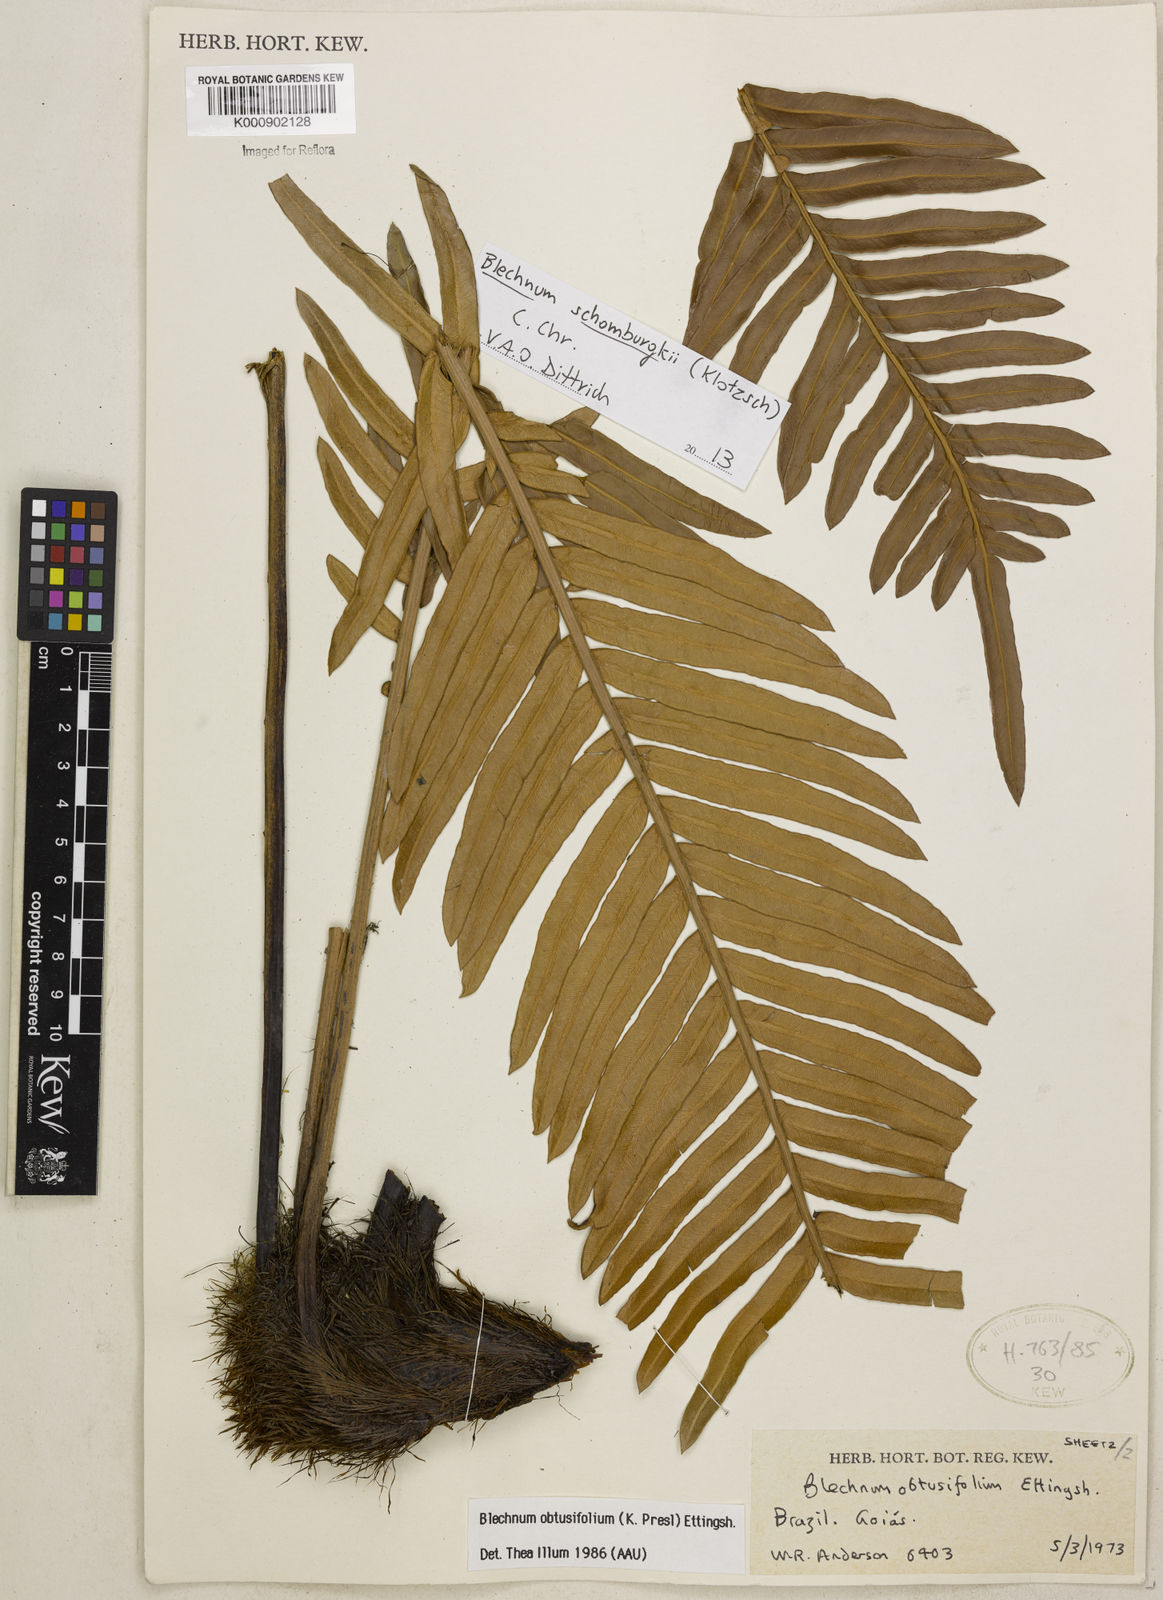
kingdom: Plantae
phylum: Tracheophyta
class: Polypodiopsida
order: Polypodiales
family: Blechnaceae
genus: Lomariocycas
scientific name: Lomariocycas obtusifolia
